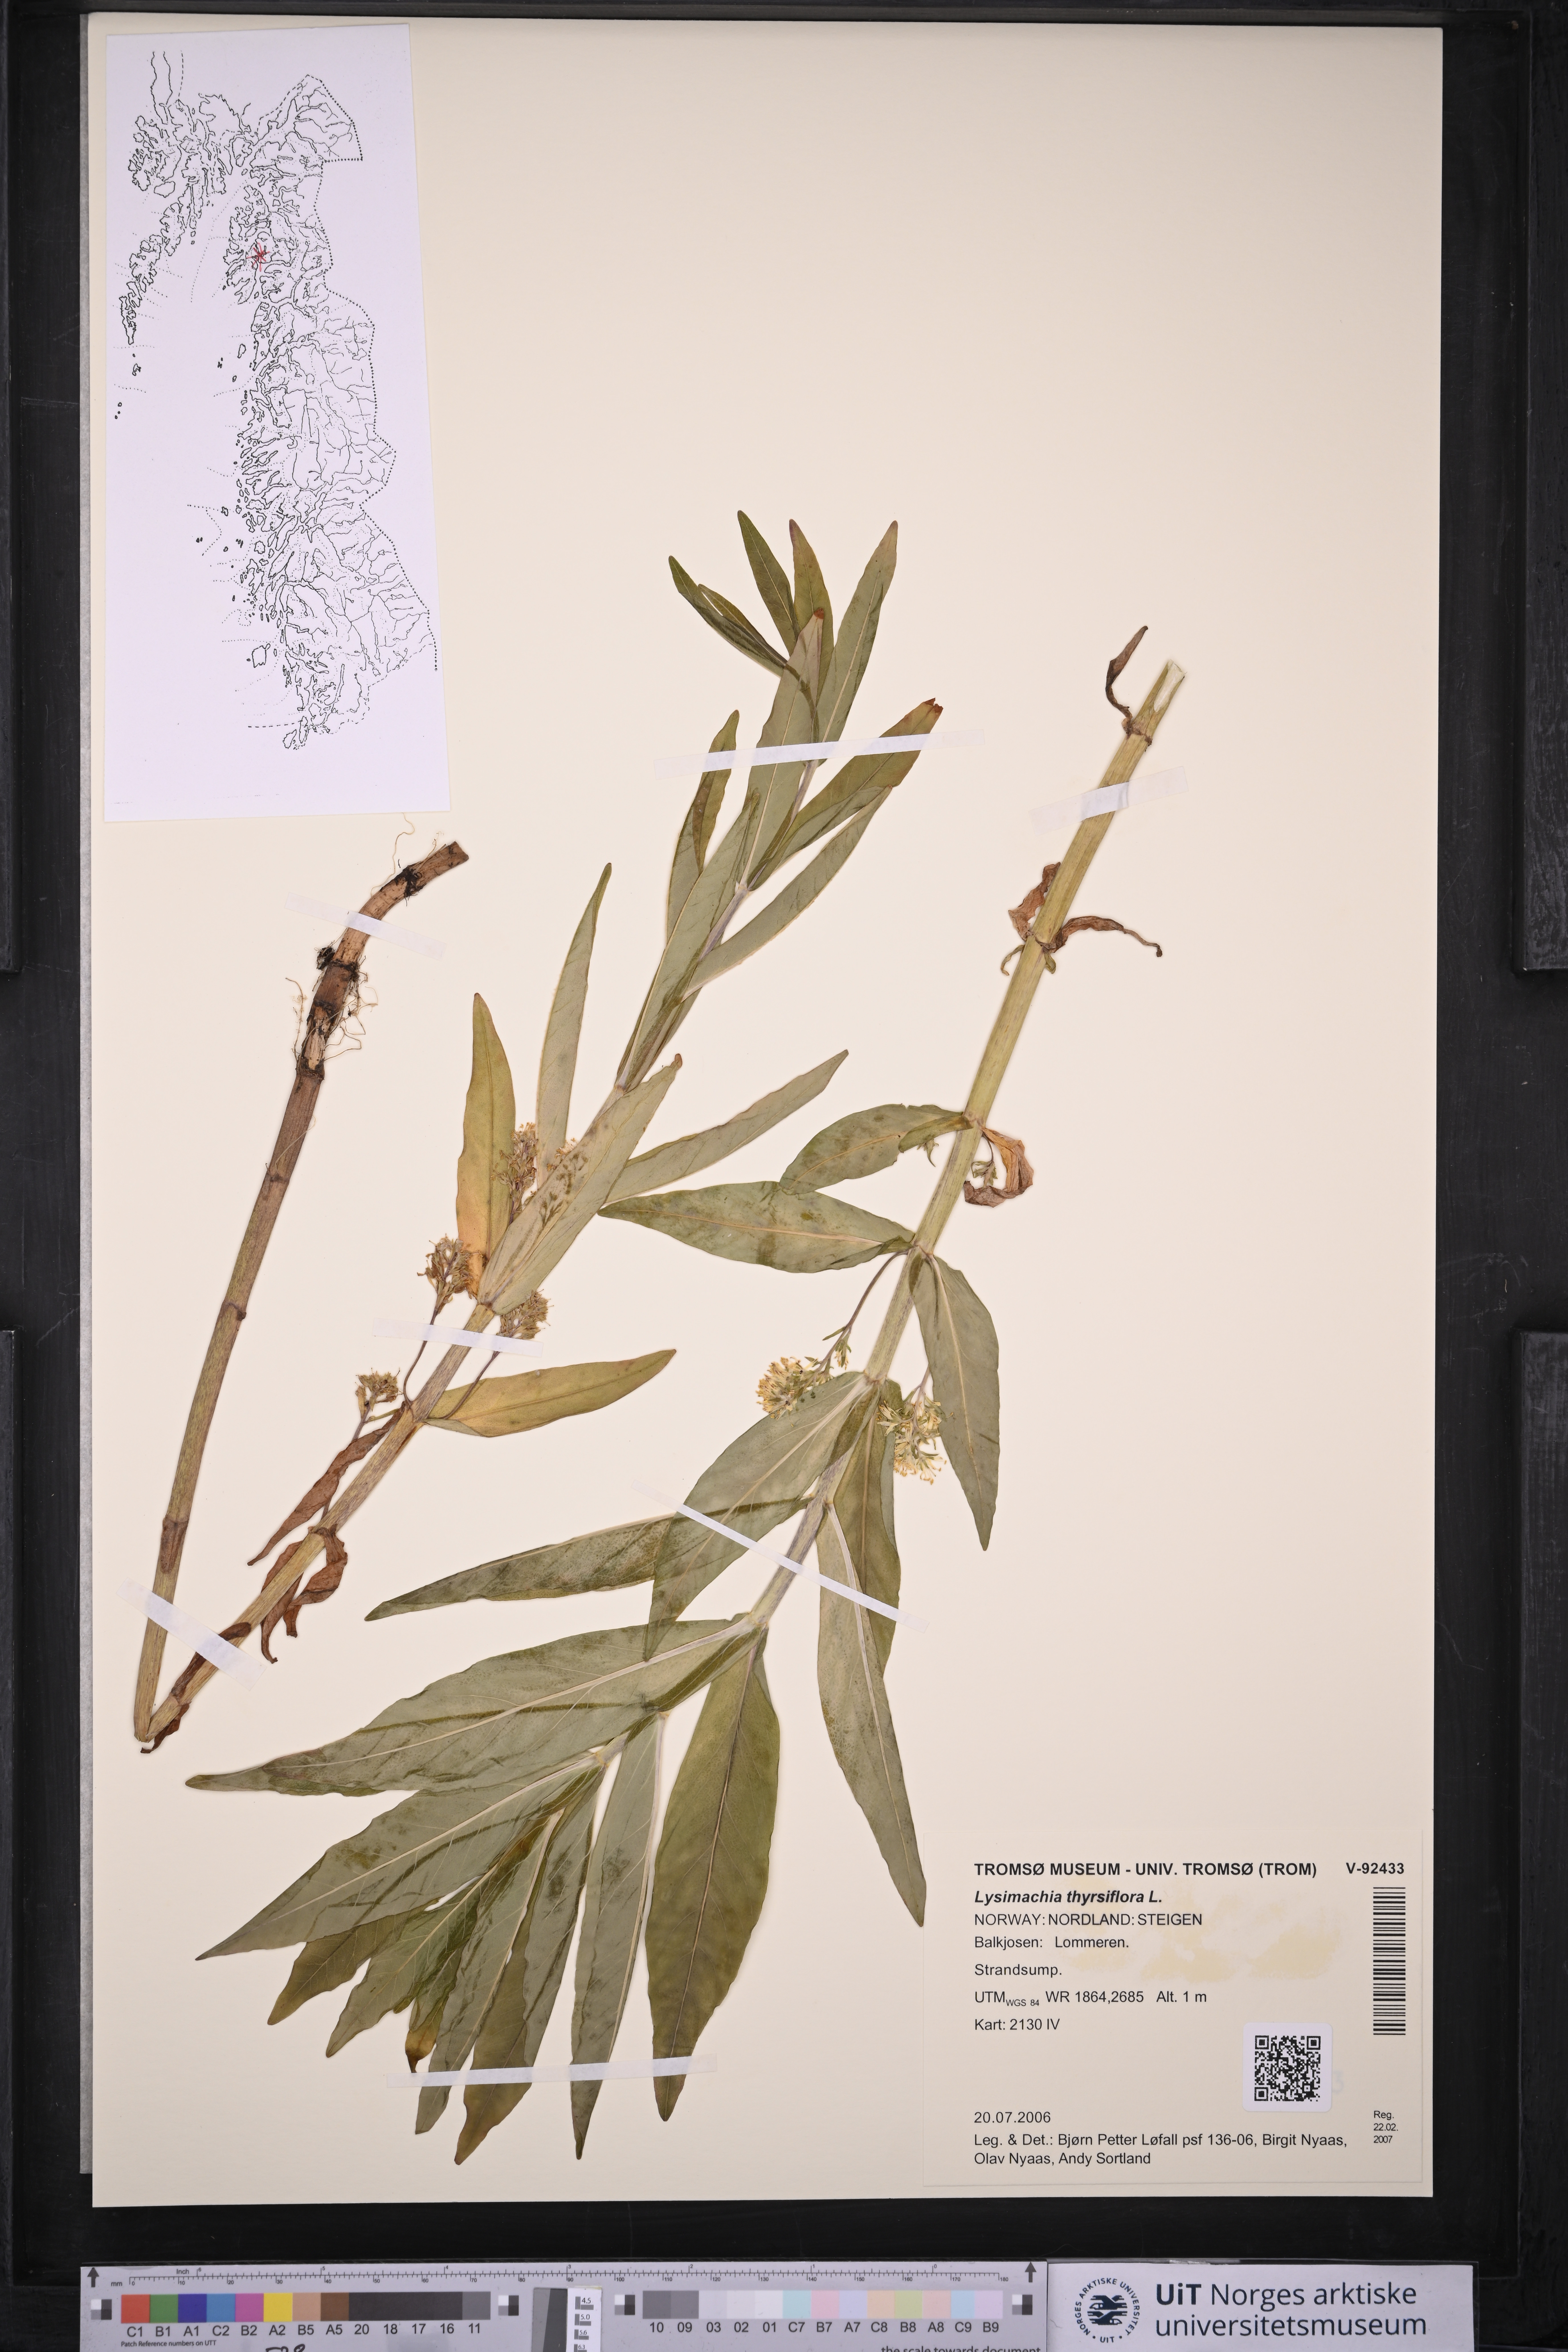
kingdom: Plantae
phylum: Tracheophyta
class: Magnoliopsida
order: Ericales
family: Primulaceae
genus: Lysimachia
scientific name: Lysimachia thyrsiflora
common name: Tufted loosestrife
